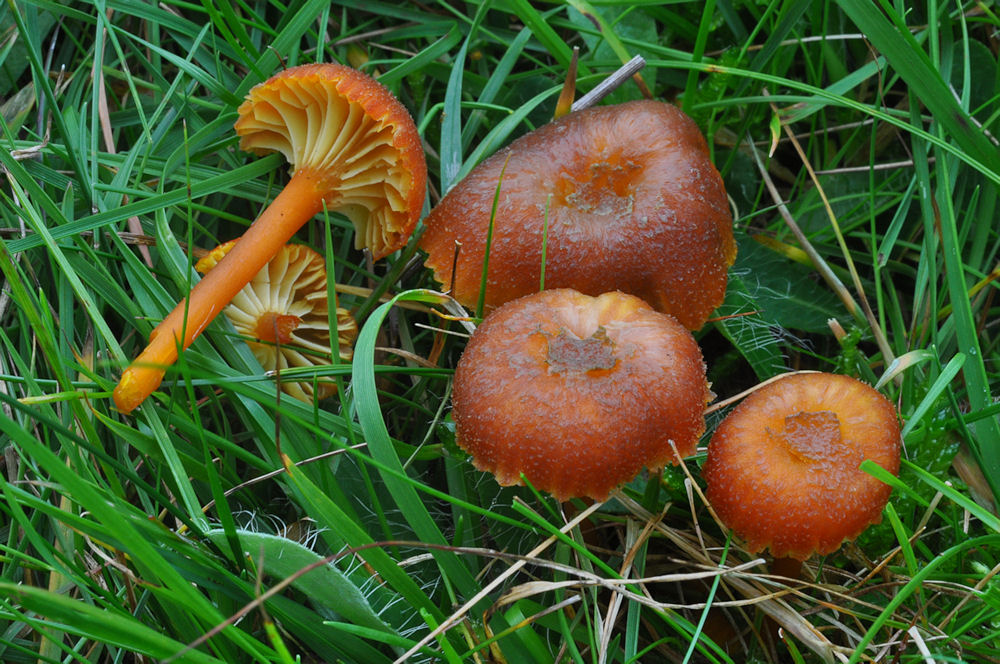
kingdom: Fungi
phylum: Basidiomycota
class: Agaricomycetes
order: Agaricales
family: Hygrophoraceae
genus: Hygrocybe
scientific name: Hygrocybe turunda
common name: sortskællet vokshat
